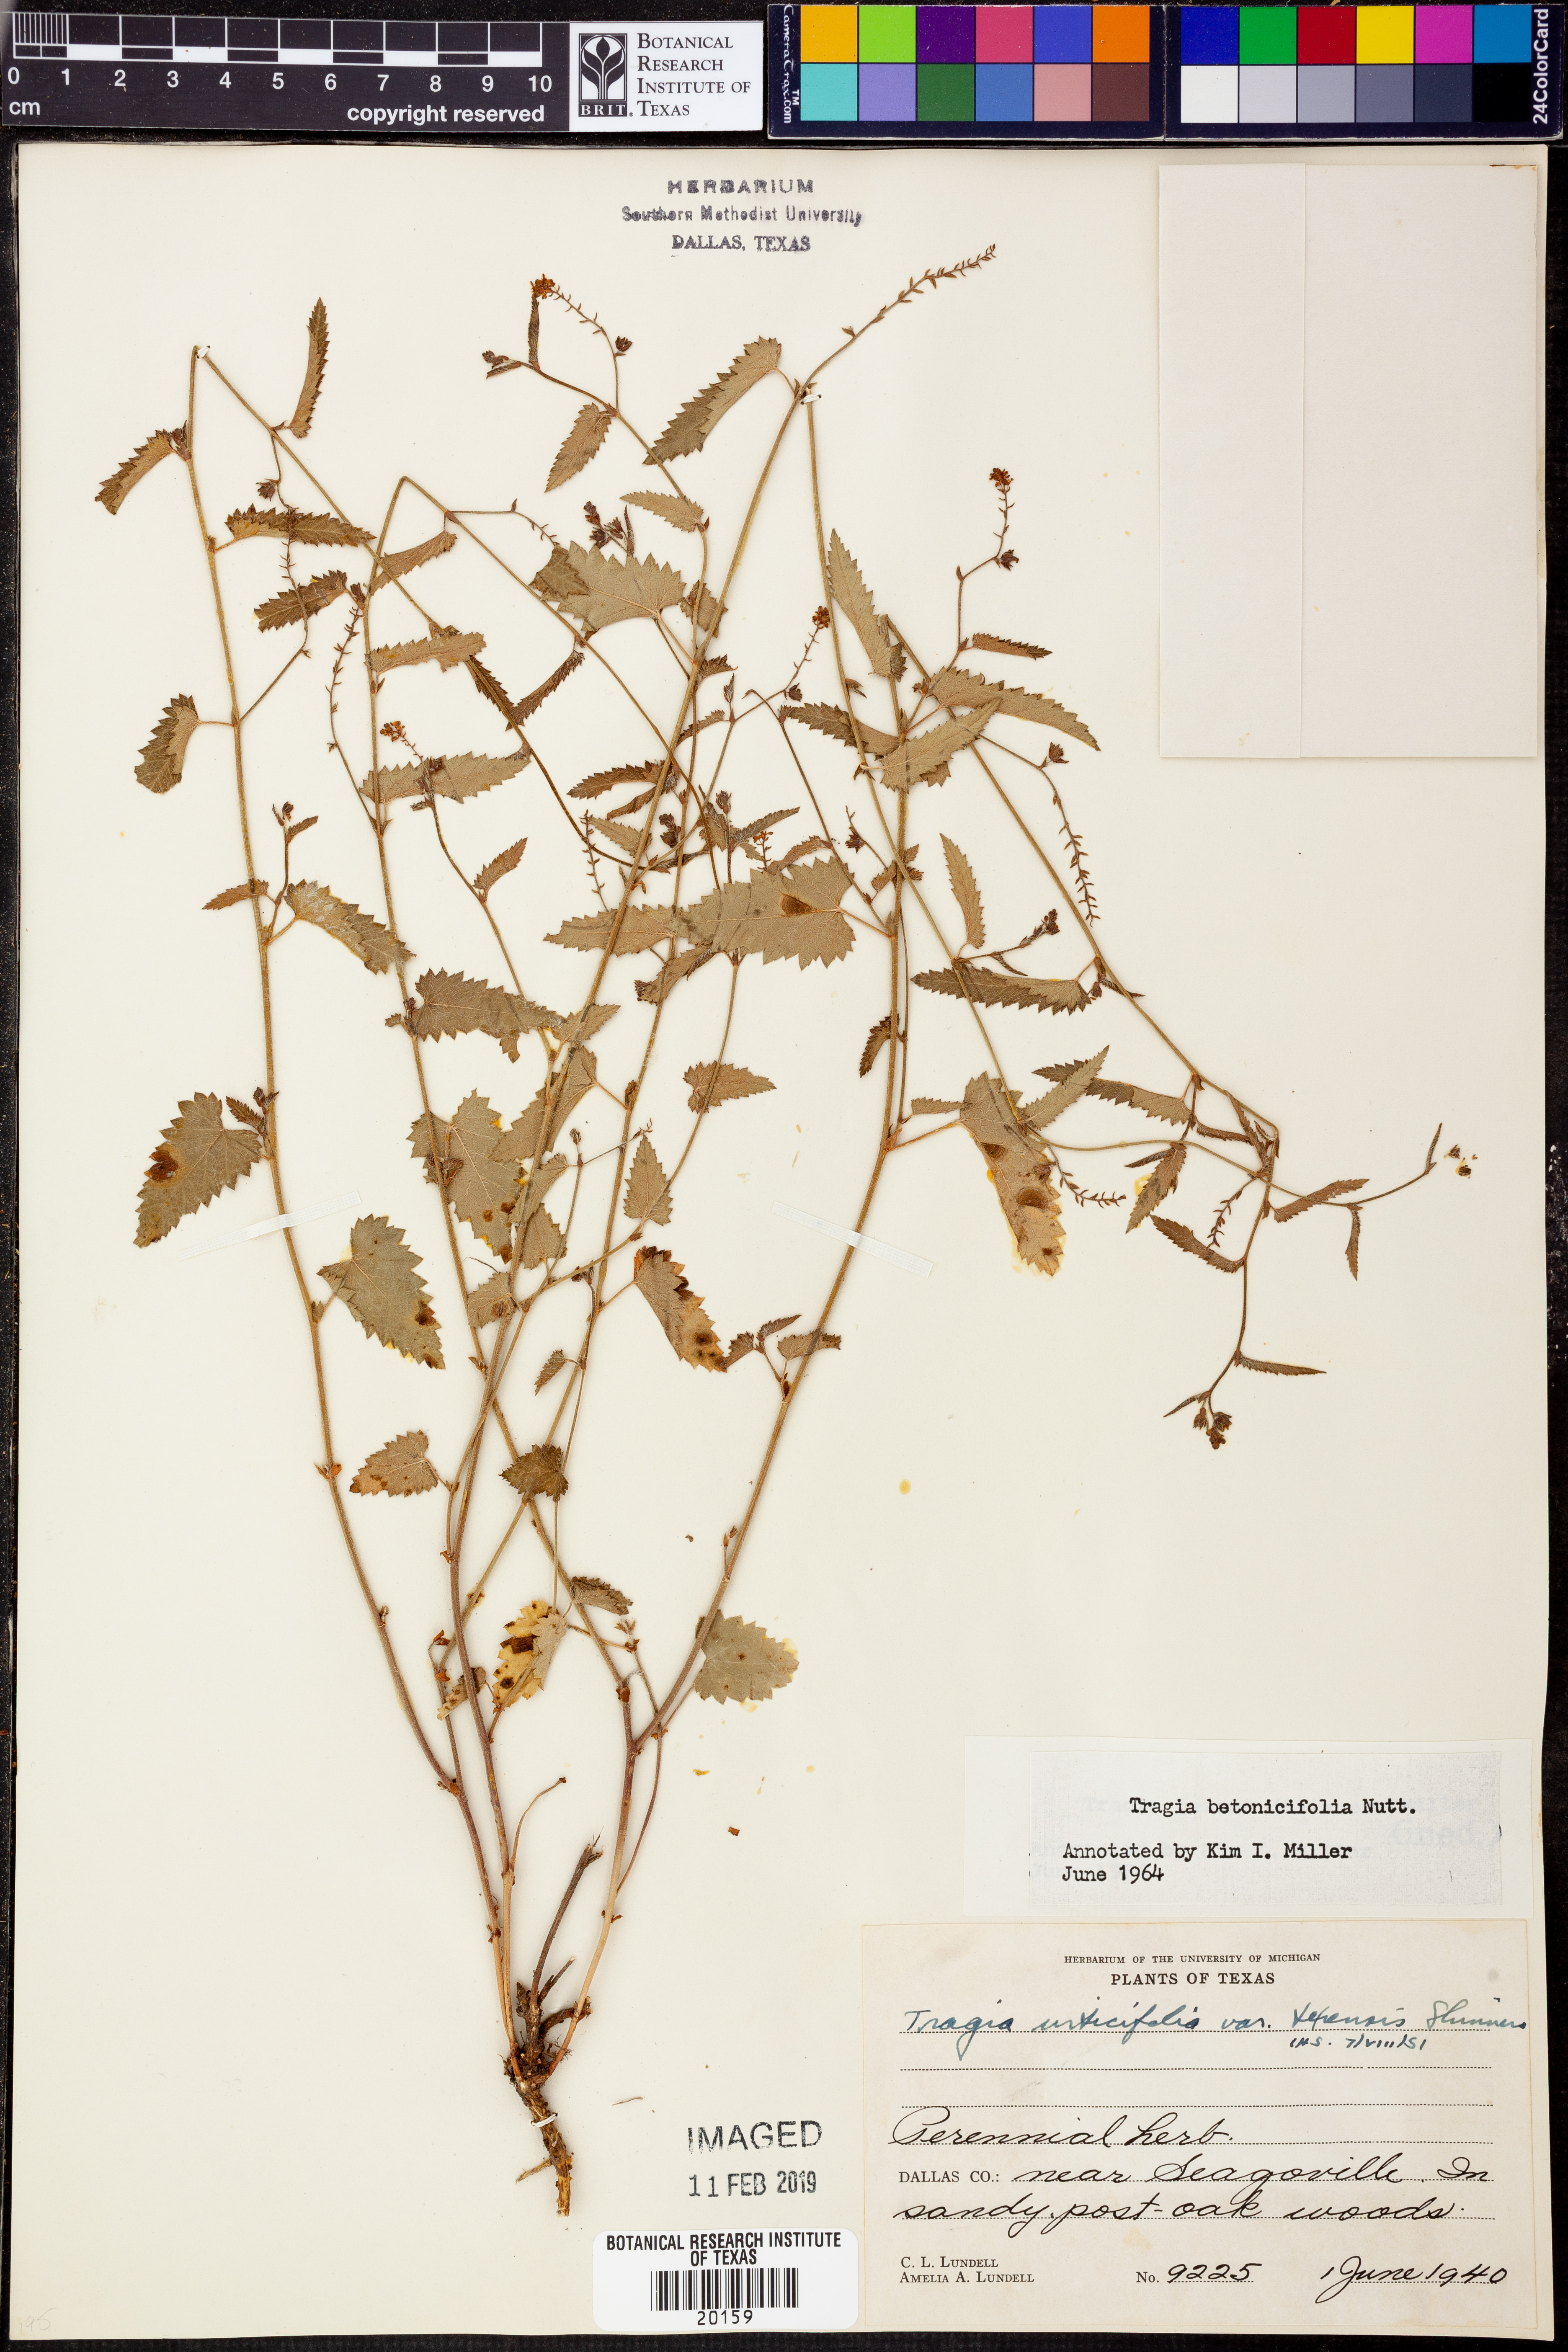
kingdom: Plantae
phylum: Tracheophyta
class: Magnoliopsida
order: Malpighiales
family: Euphorbiaceae
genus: Tragia
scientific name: Tragia betonicifolia
